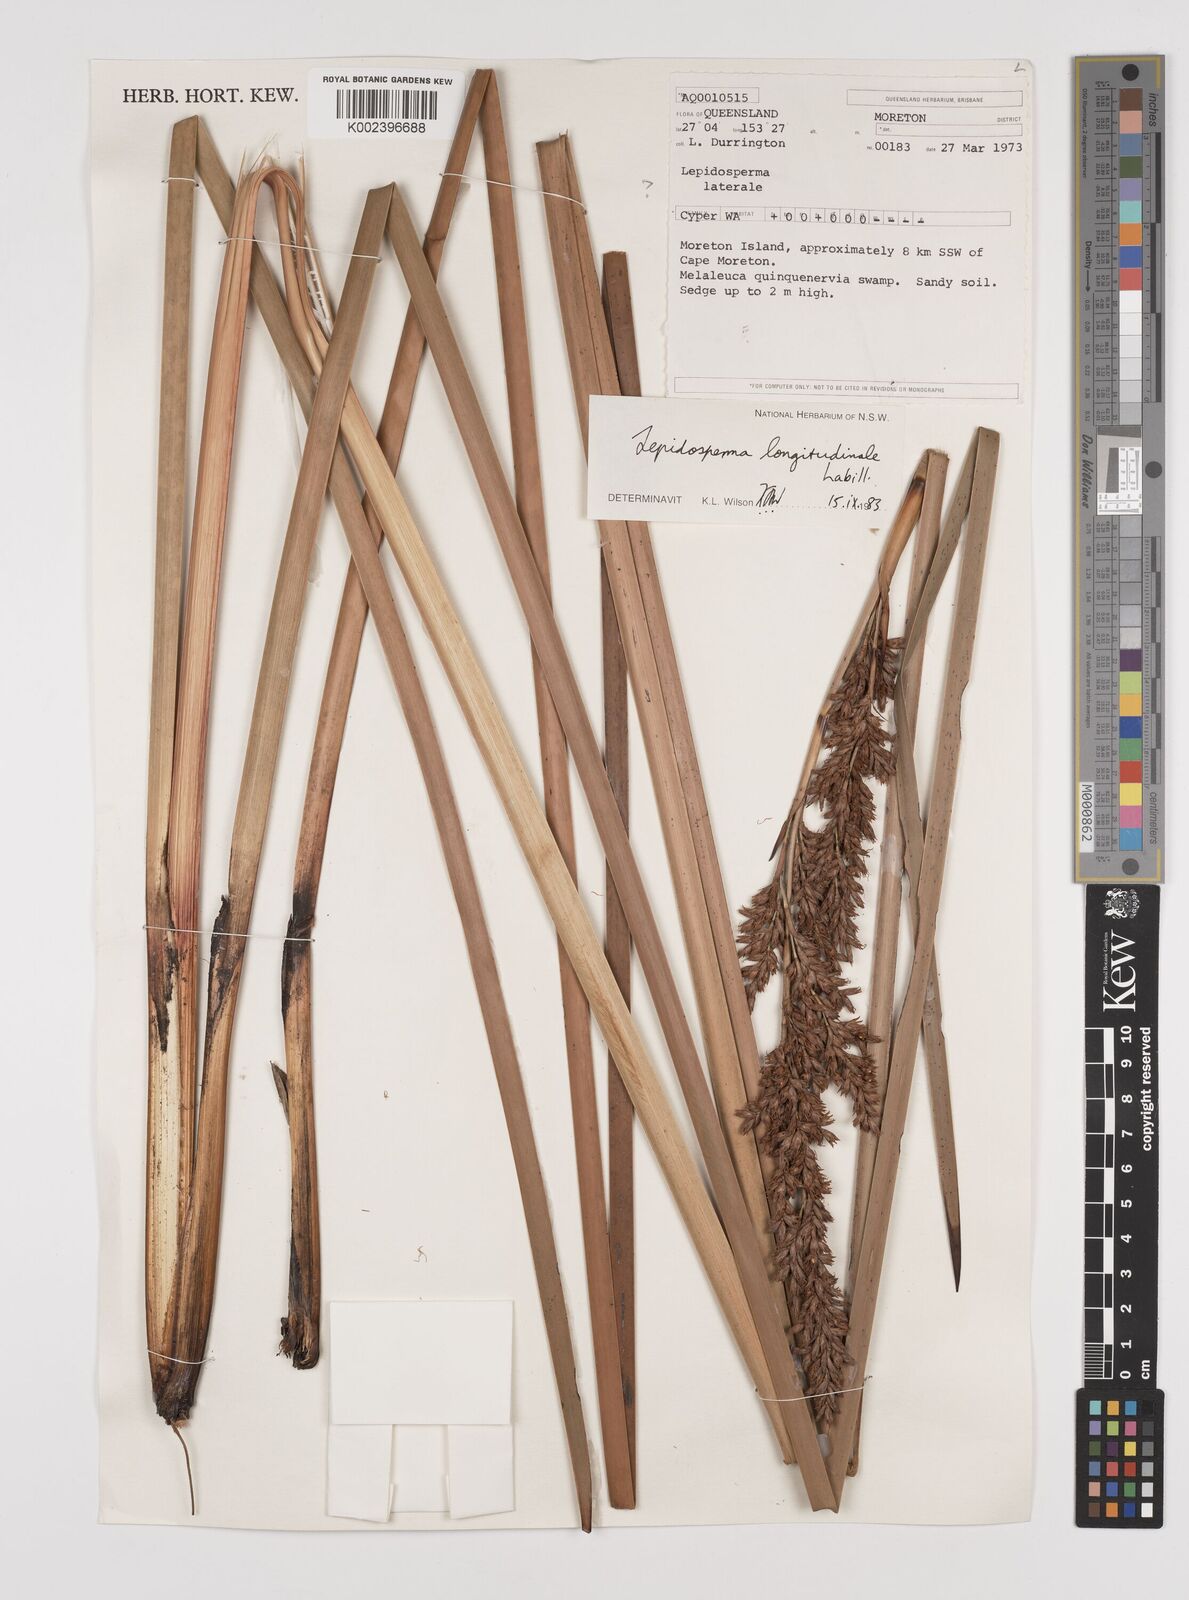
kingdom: Plantae
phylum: Tracheophyta
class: Liliopsida
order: Poales
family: Cyperaceae
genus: Lepidosperma
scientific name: Lepidosperma longitudinale
